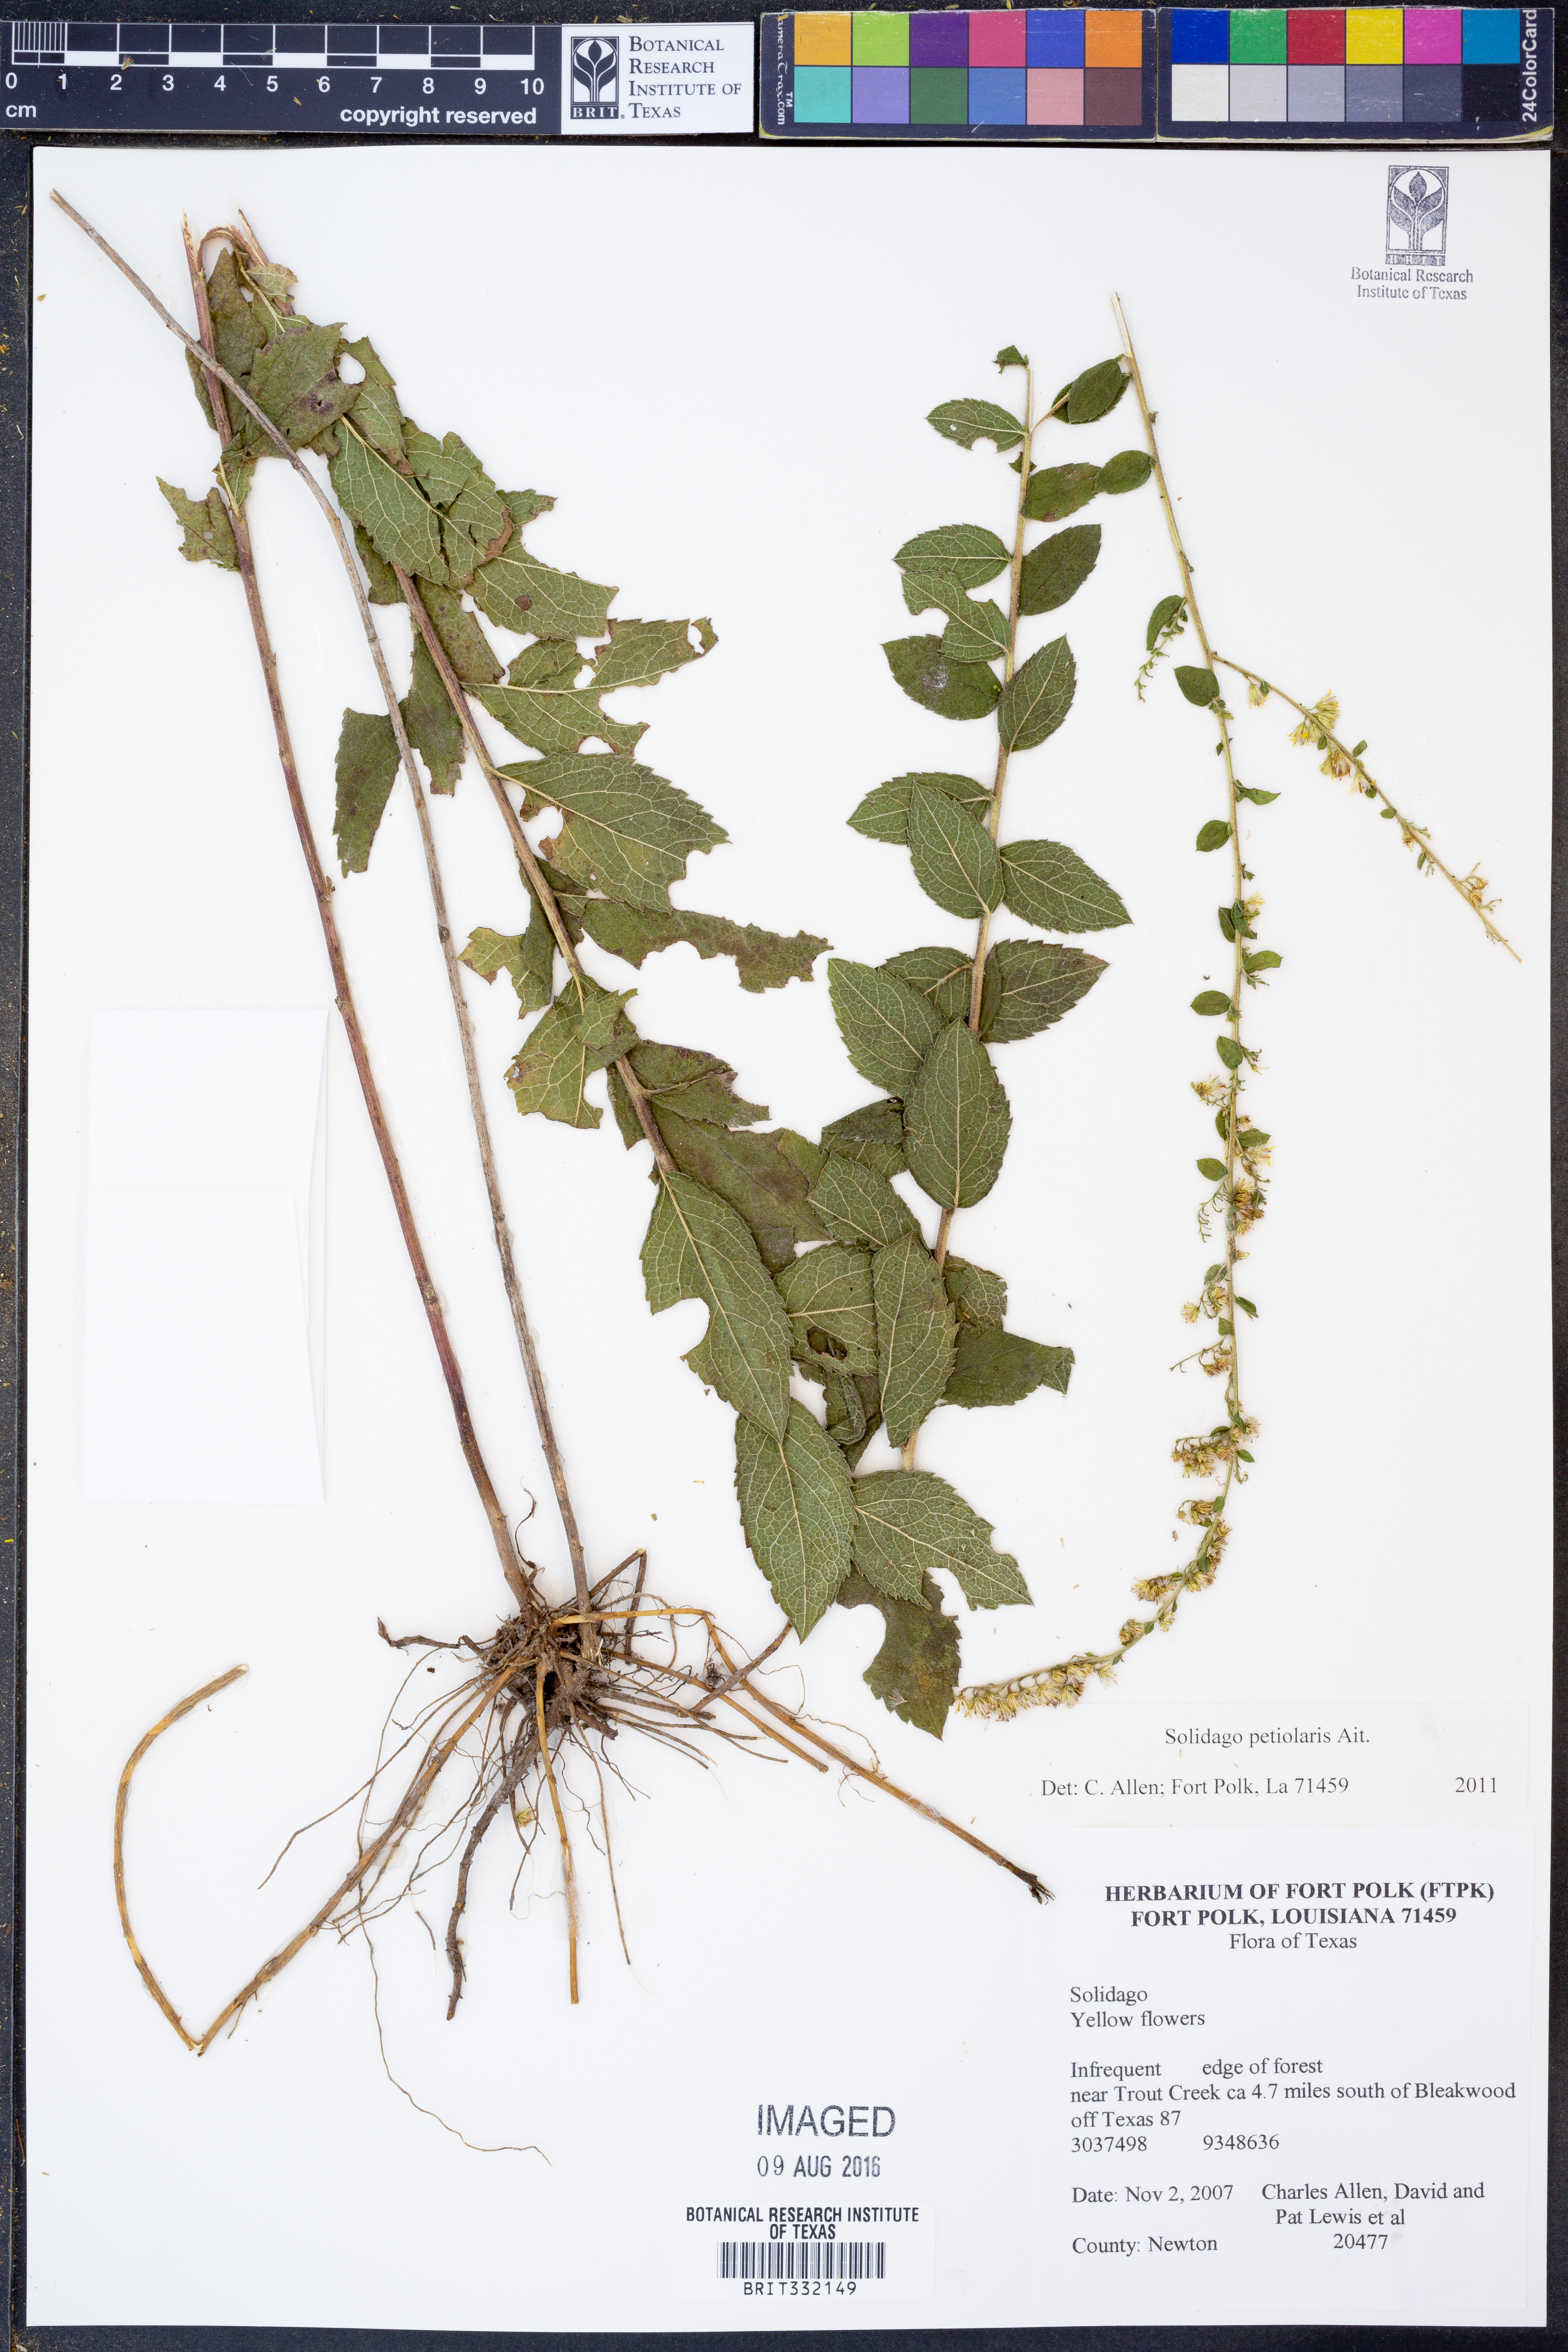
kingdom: Plantae
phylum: Tracheophyta
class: Magnoliopsida
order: Asterales
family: Asteraceae
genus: Solidago
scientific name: Solidago petiolaris
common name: Downy ragged goldenrod
